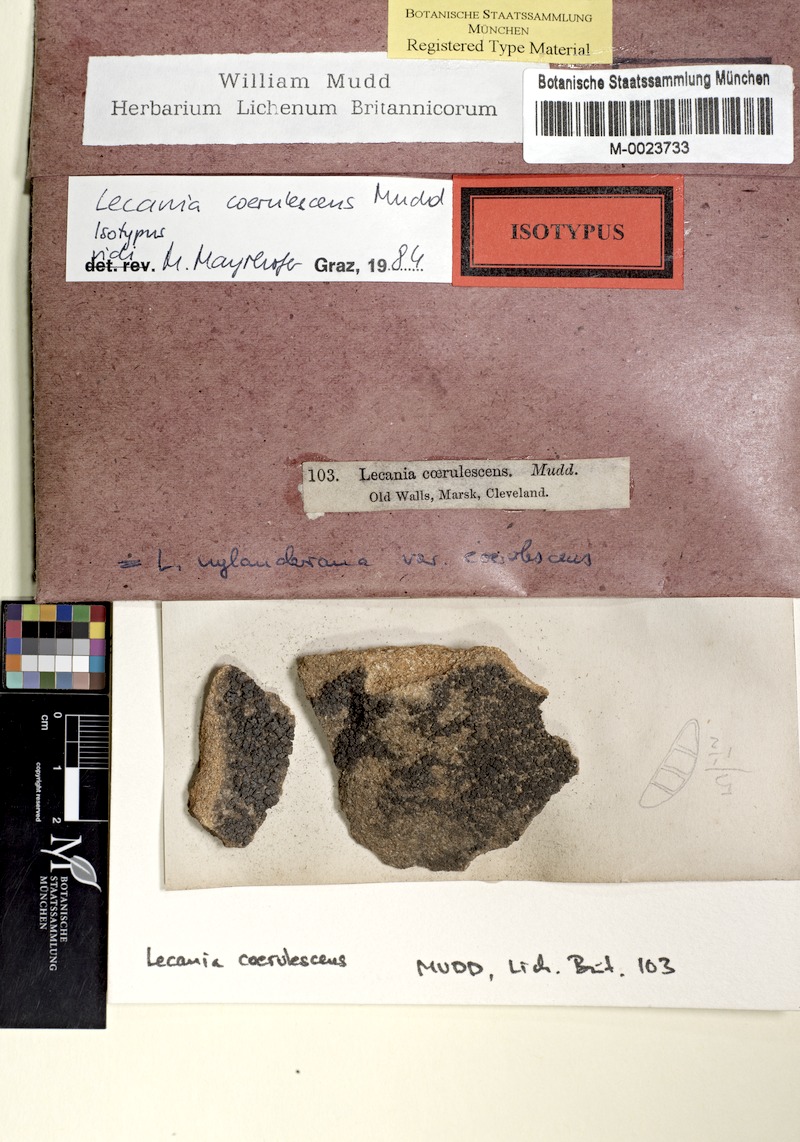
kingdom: Fungi
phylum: Ascomycota
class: Lecanoromycetes
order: Lecanorales
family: Ramalinaceae
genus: Lecania
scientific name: Lecania coerulescens
